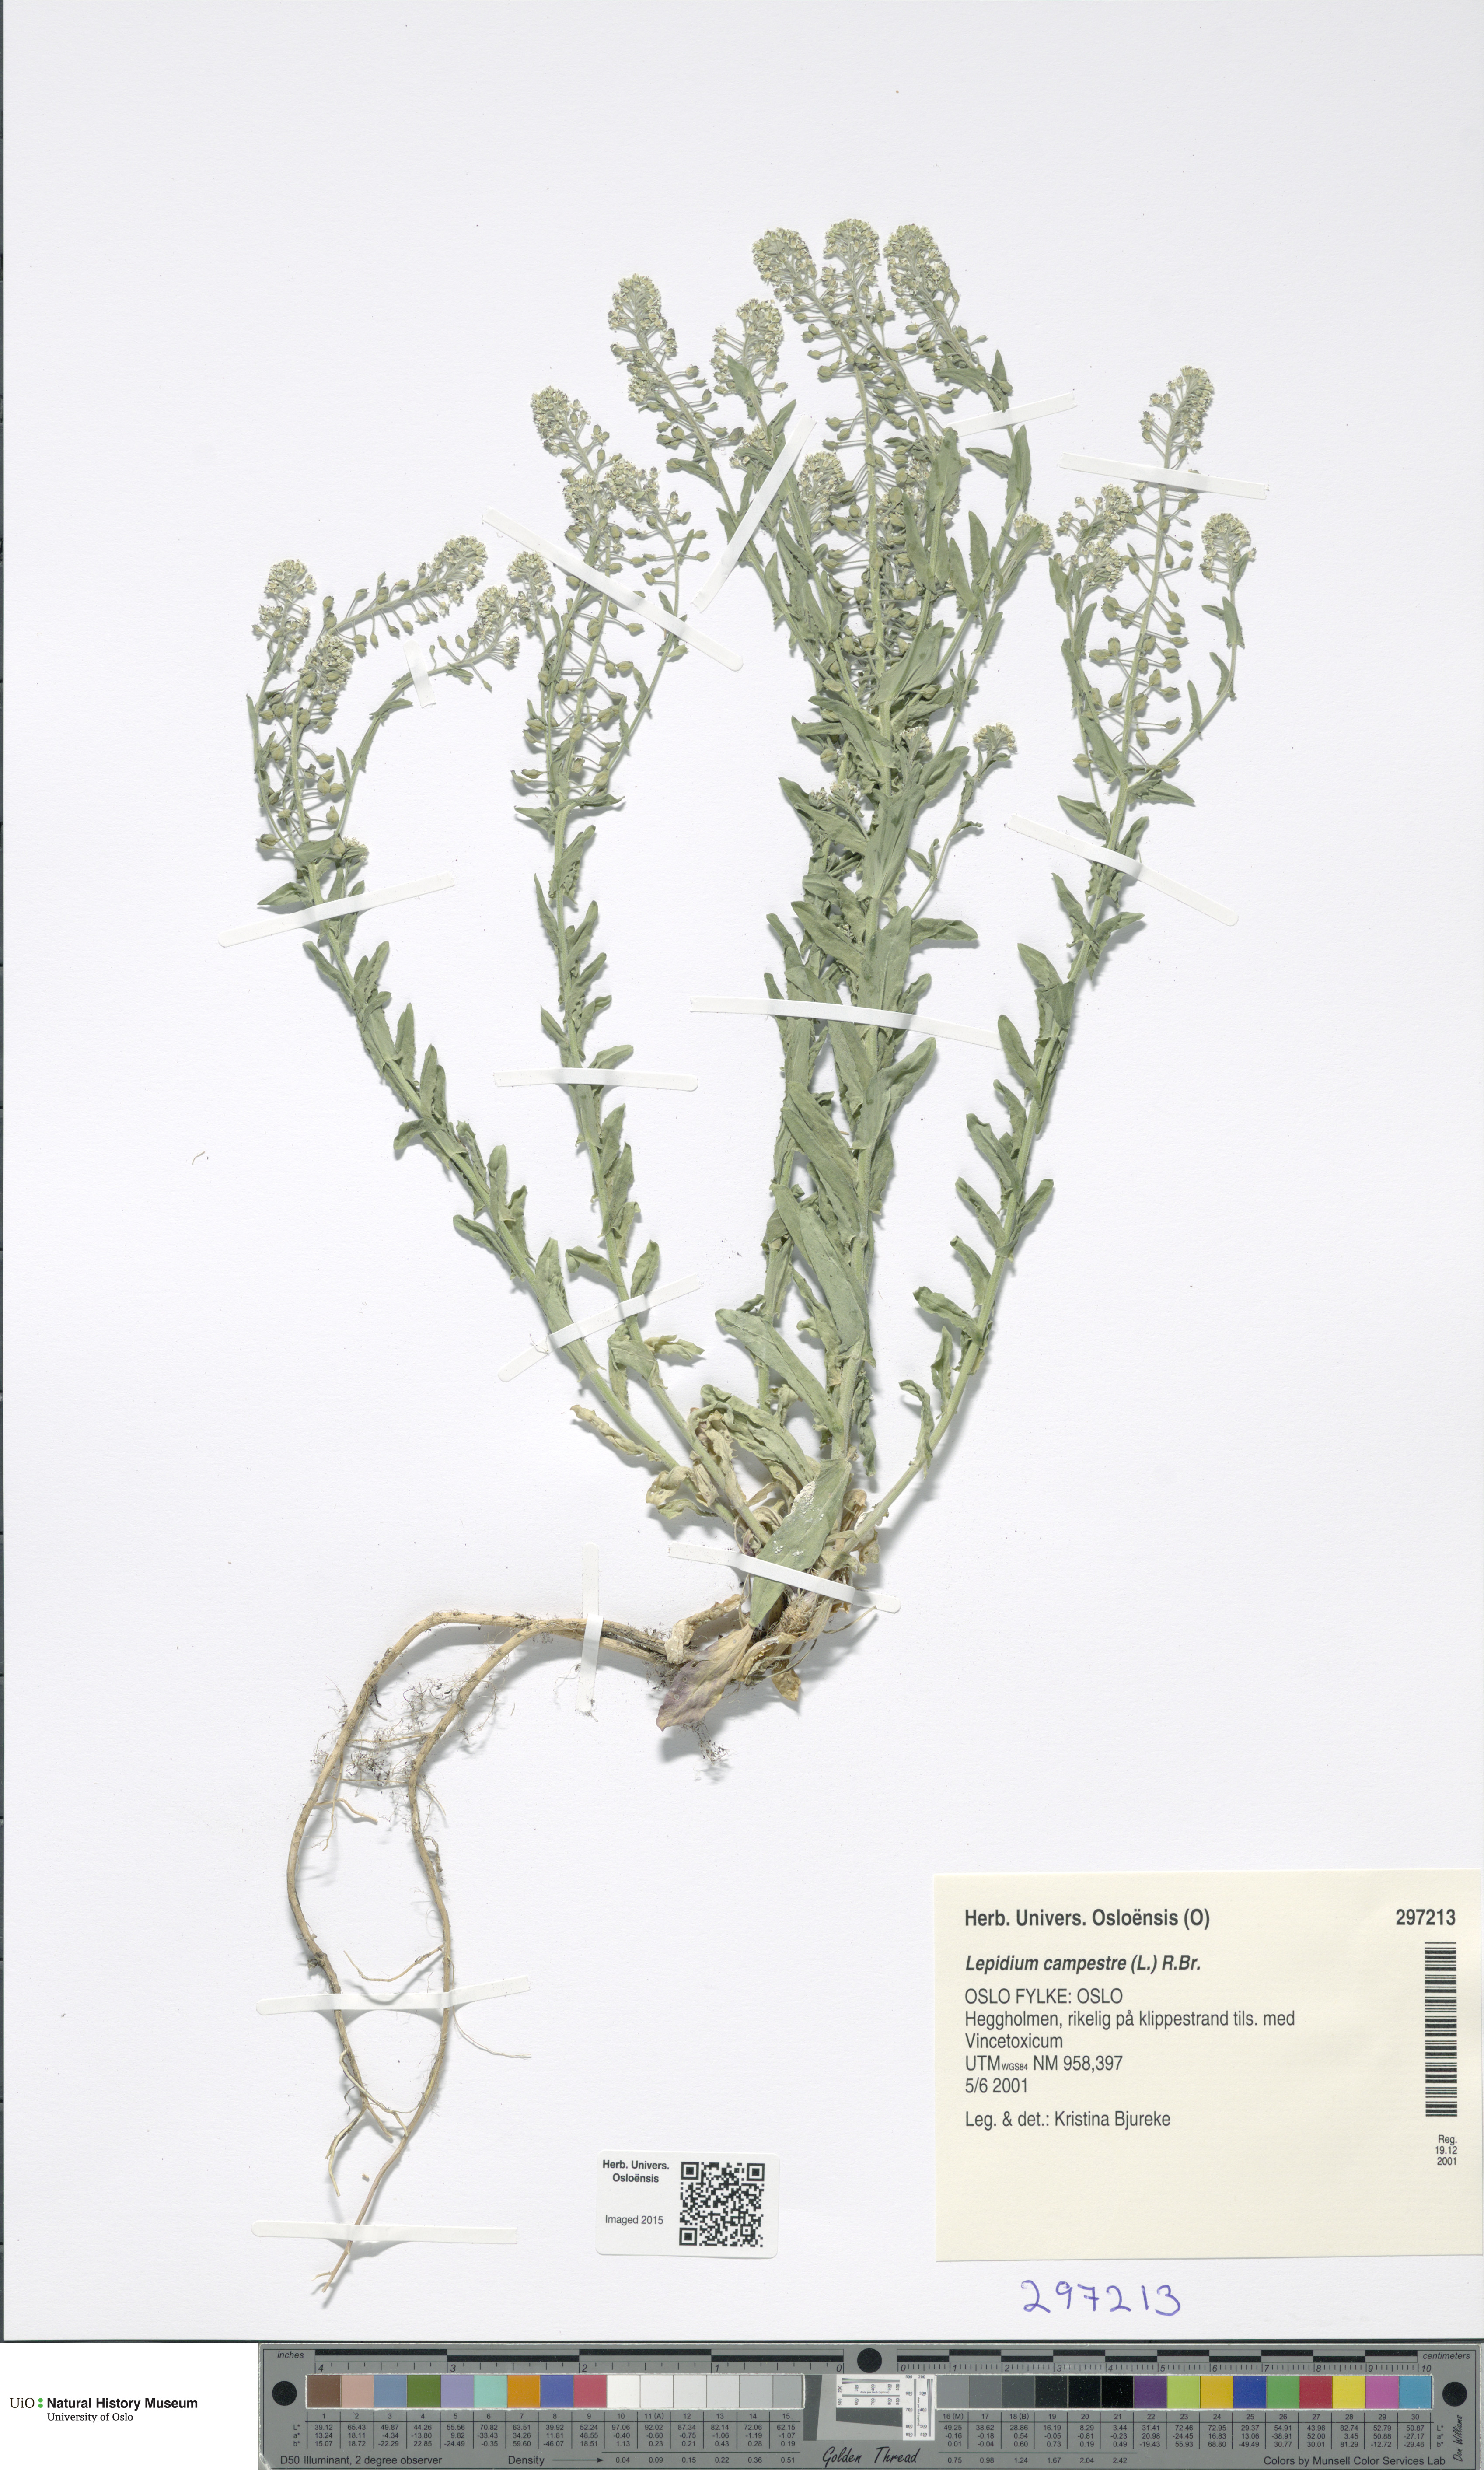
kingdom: Plantae
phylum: Tracheophyta
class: Magnoliopsida
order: Brassicales
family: Brassicaceae
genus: Lepidium
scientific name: Lepidium campestre
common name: Field pepperwort
